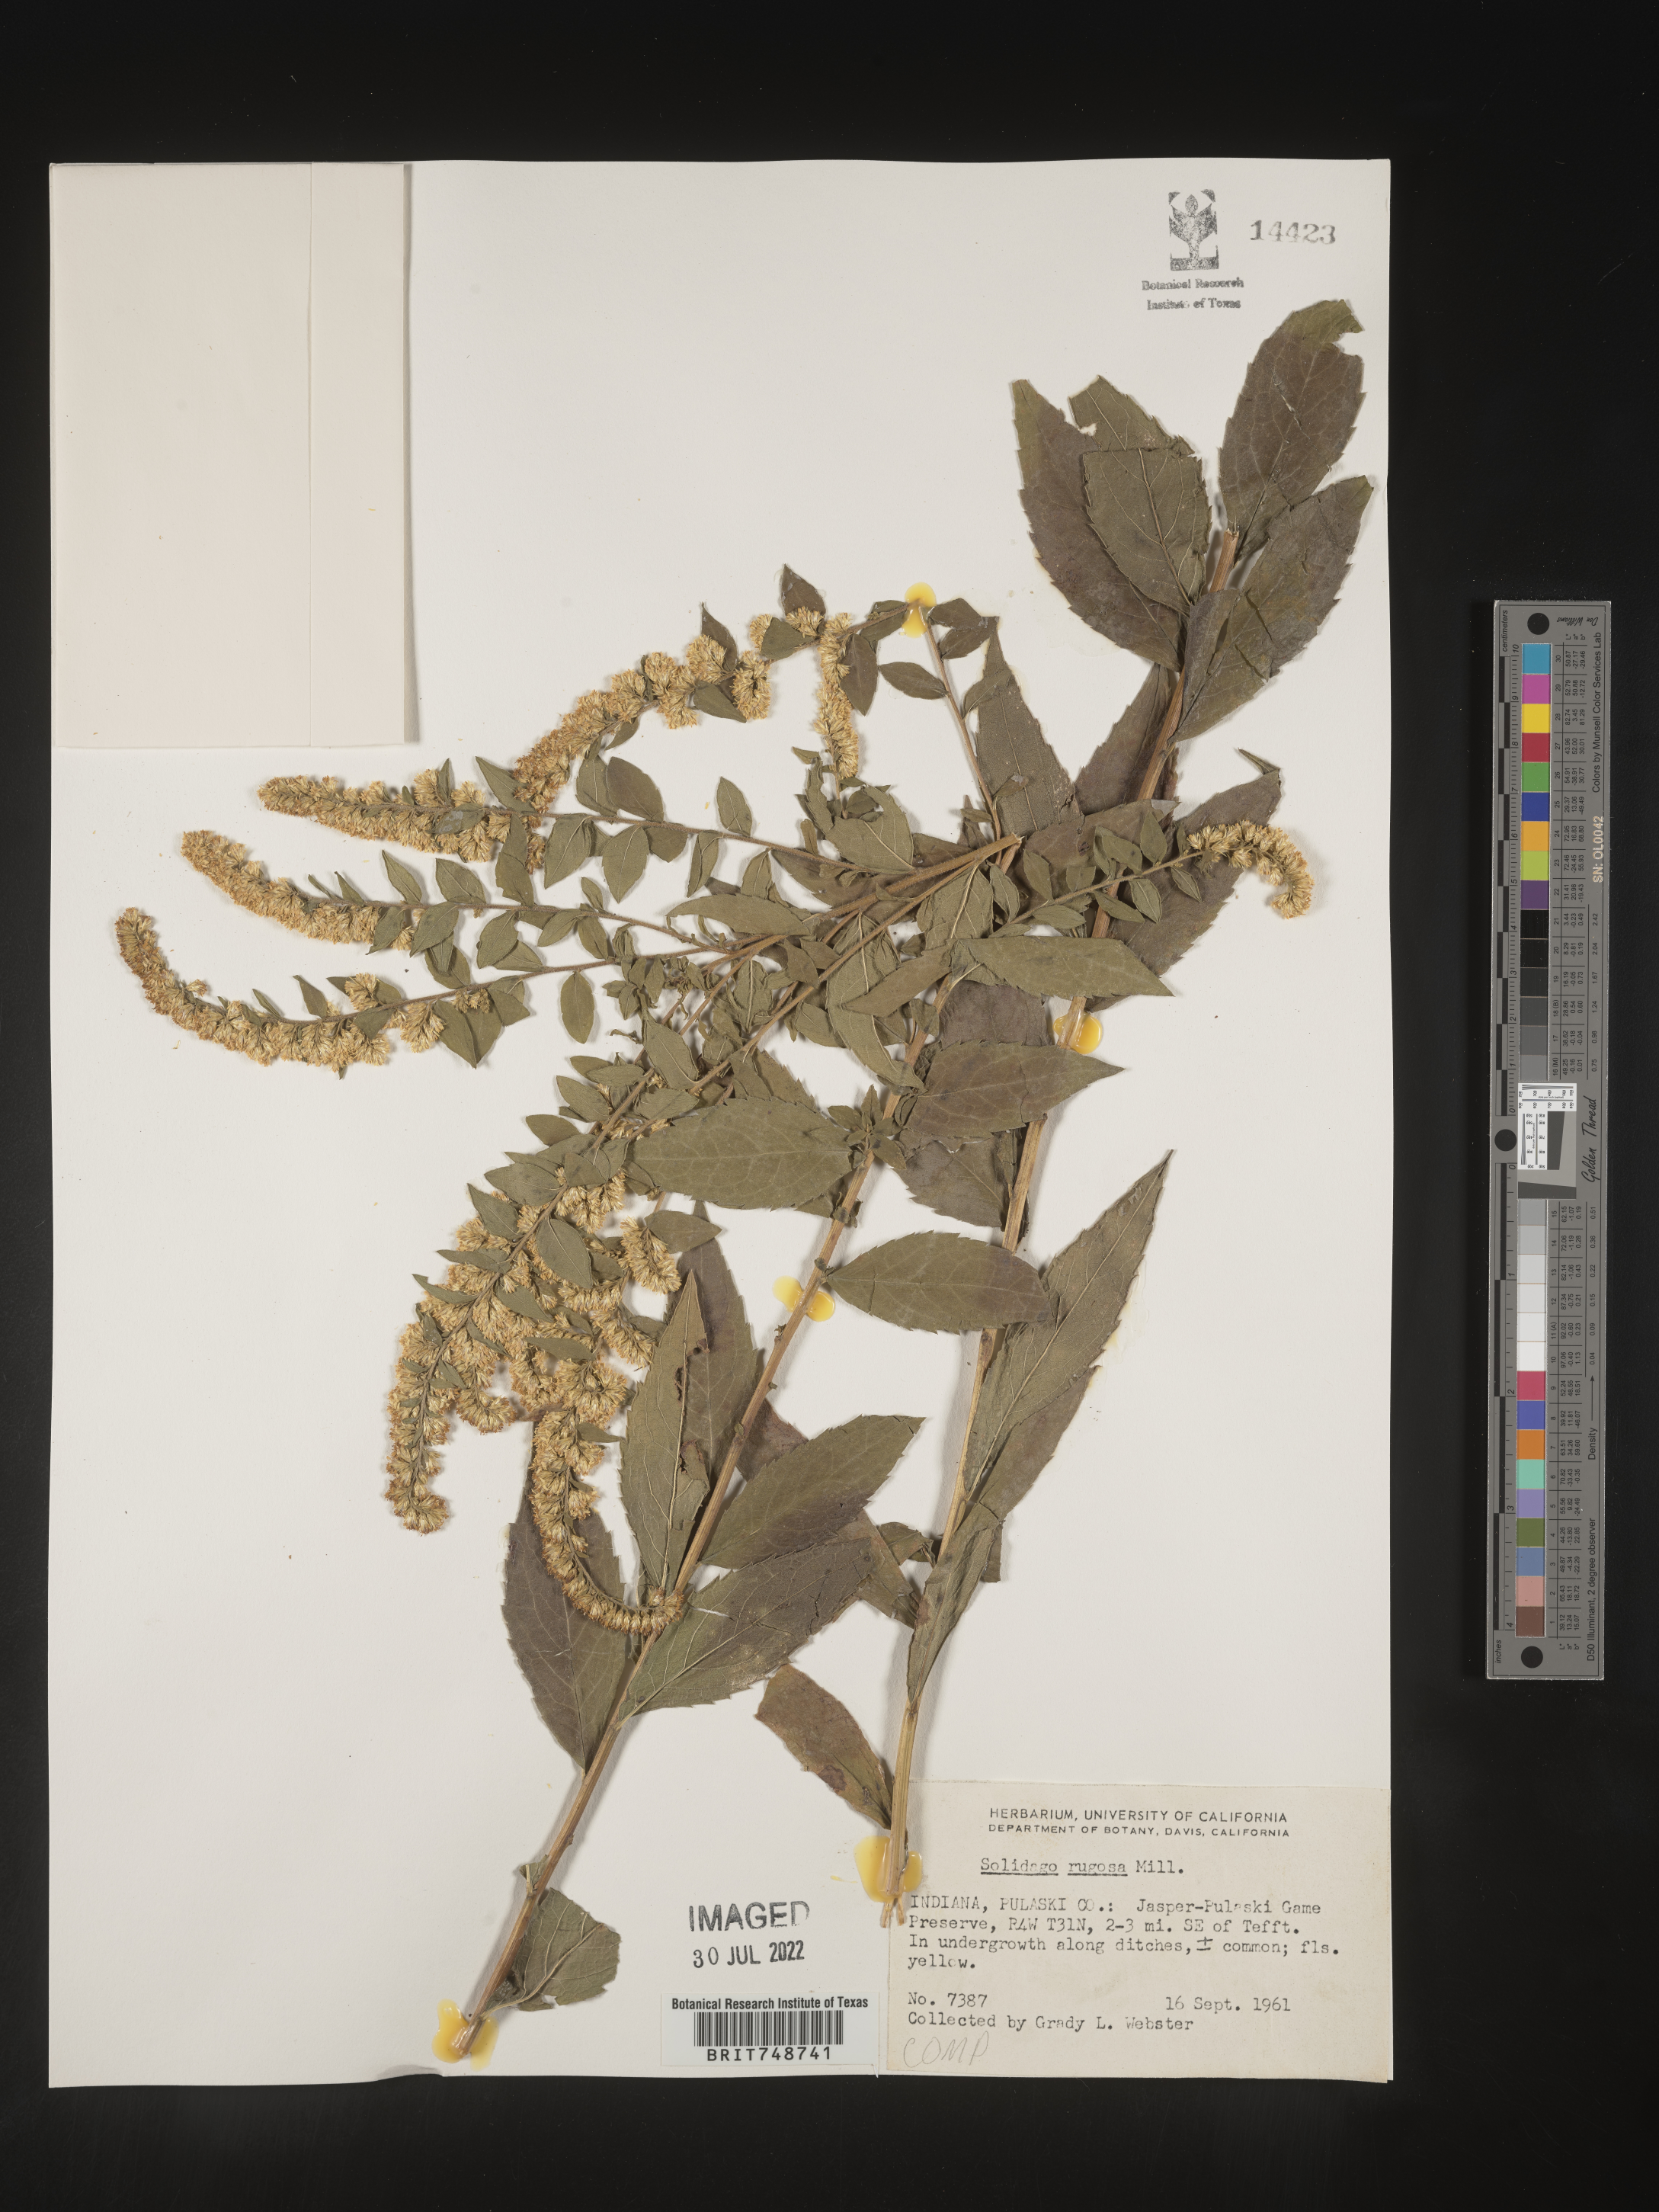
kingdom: Plantae
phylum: Tracheophyta
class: Magnoliopsida
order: Asterales
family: Asteraceae
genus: Solidago
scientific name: Solidago rugosa
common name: Rough-stemmed goldenrod
